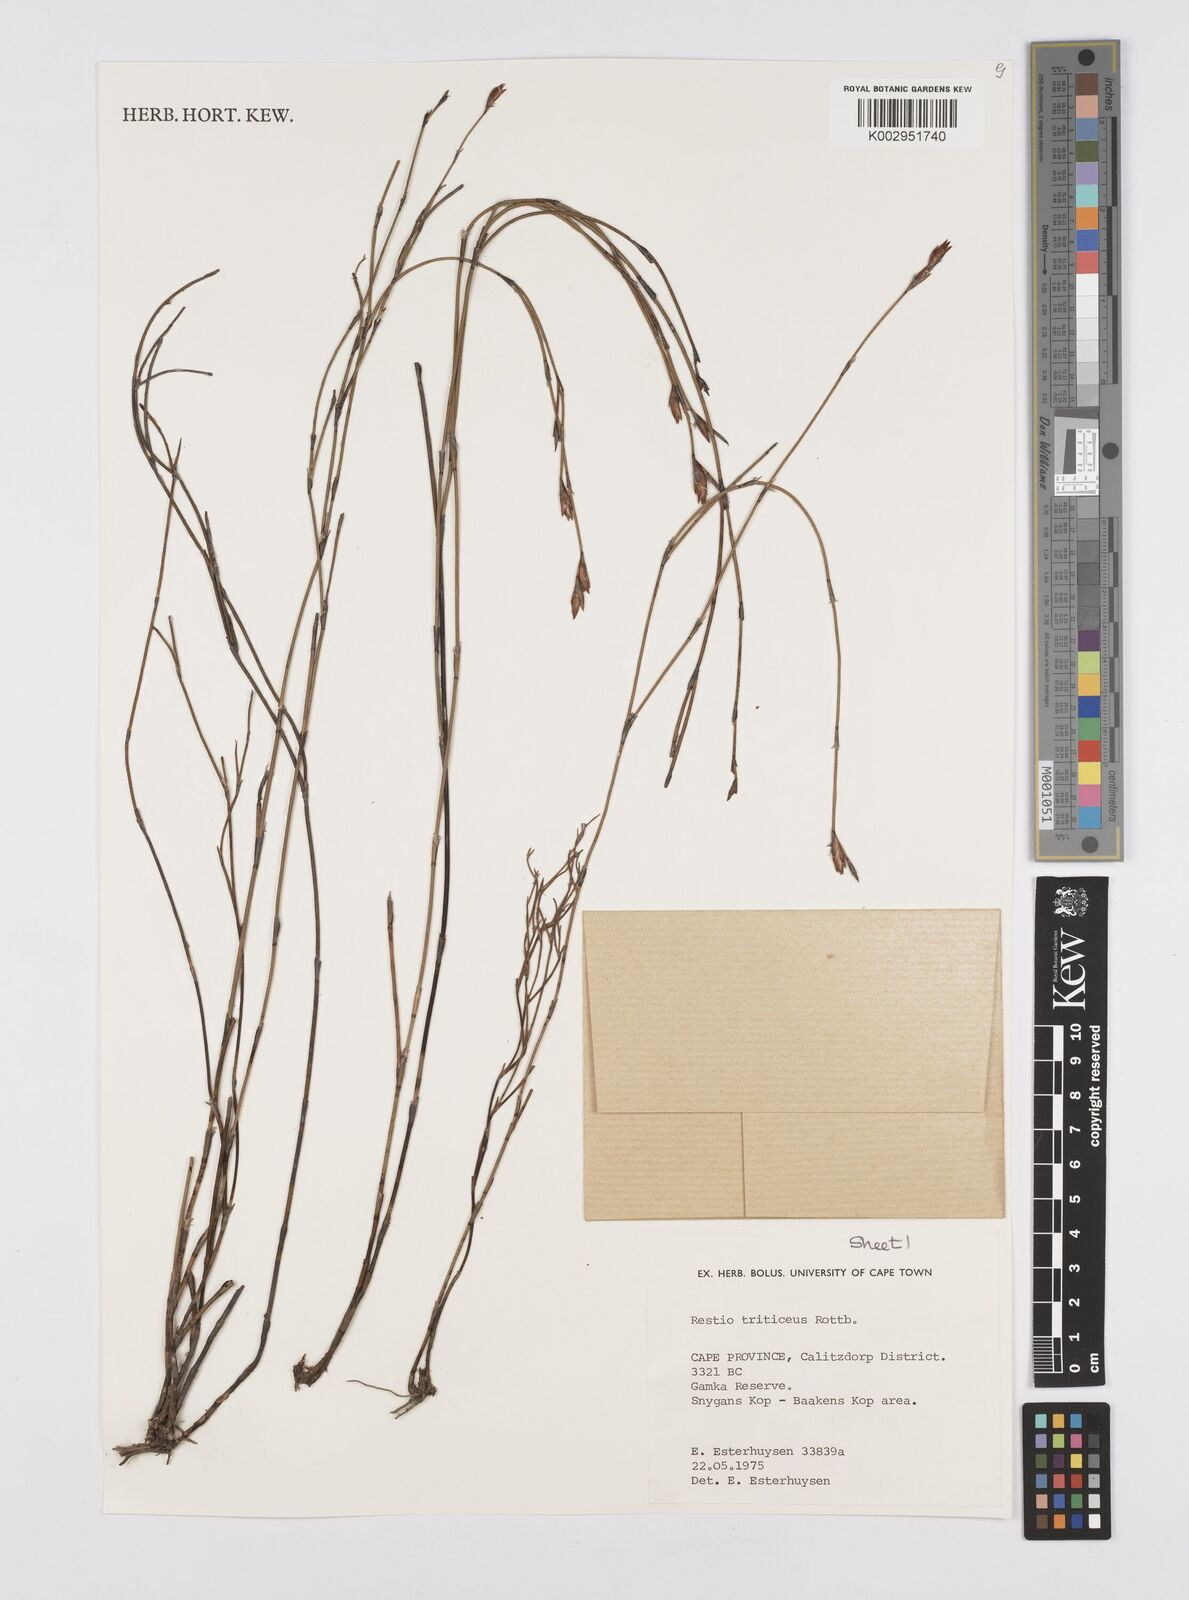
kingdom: Plantae
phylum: Tracheophyta
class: Liliopsida
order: Poales
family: Restionaceae
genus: Restio
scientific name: Restio triticeus
